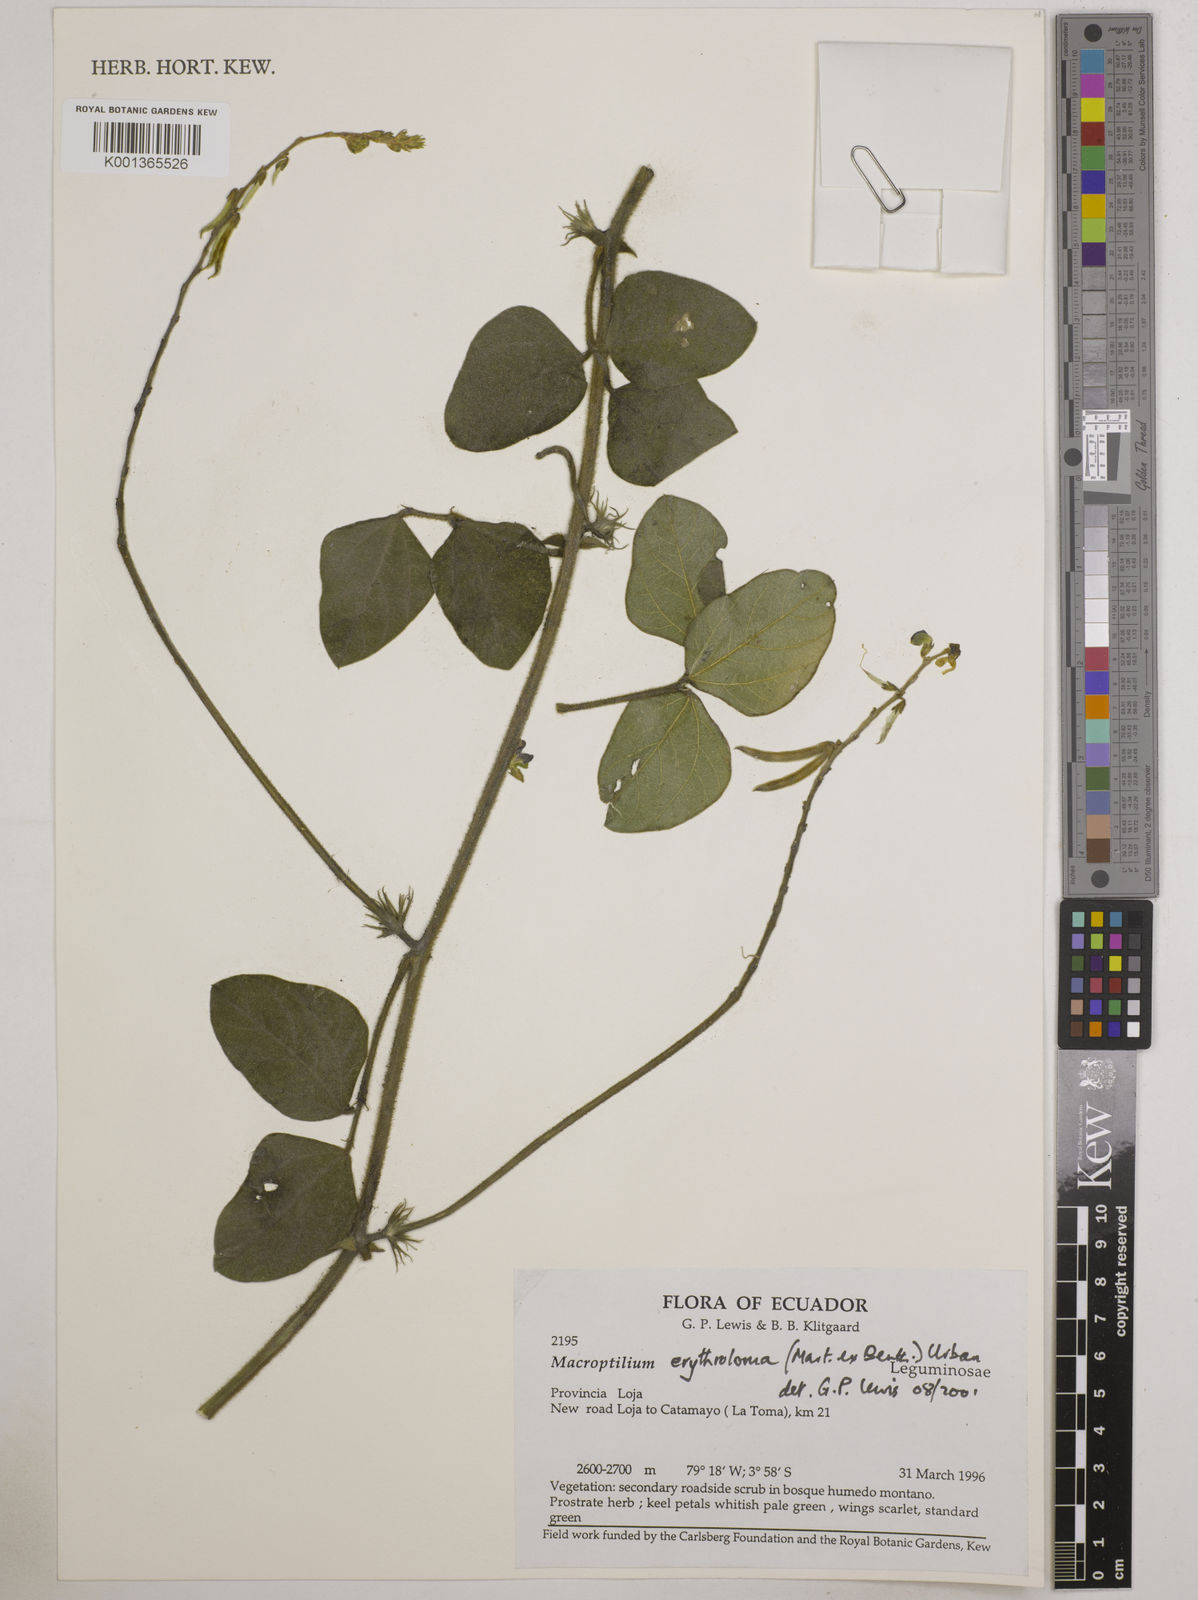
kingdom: Plantae
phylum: Tracheophyta
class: Magnoliopsida
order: Fabales
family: Fabaceae
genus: Macroptilium
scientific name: Macroptilium erythroloma
